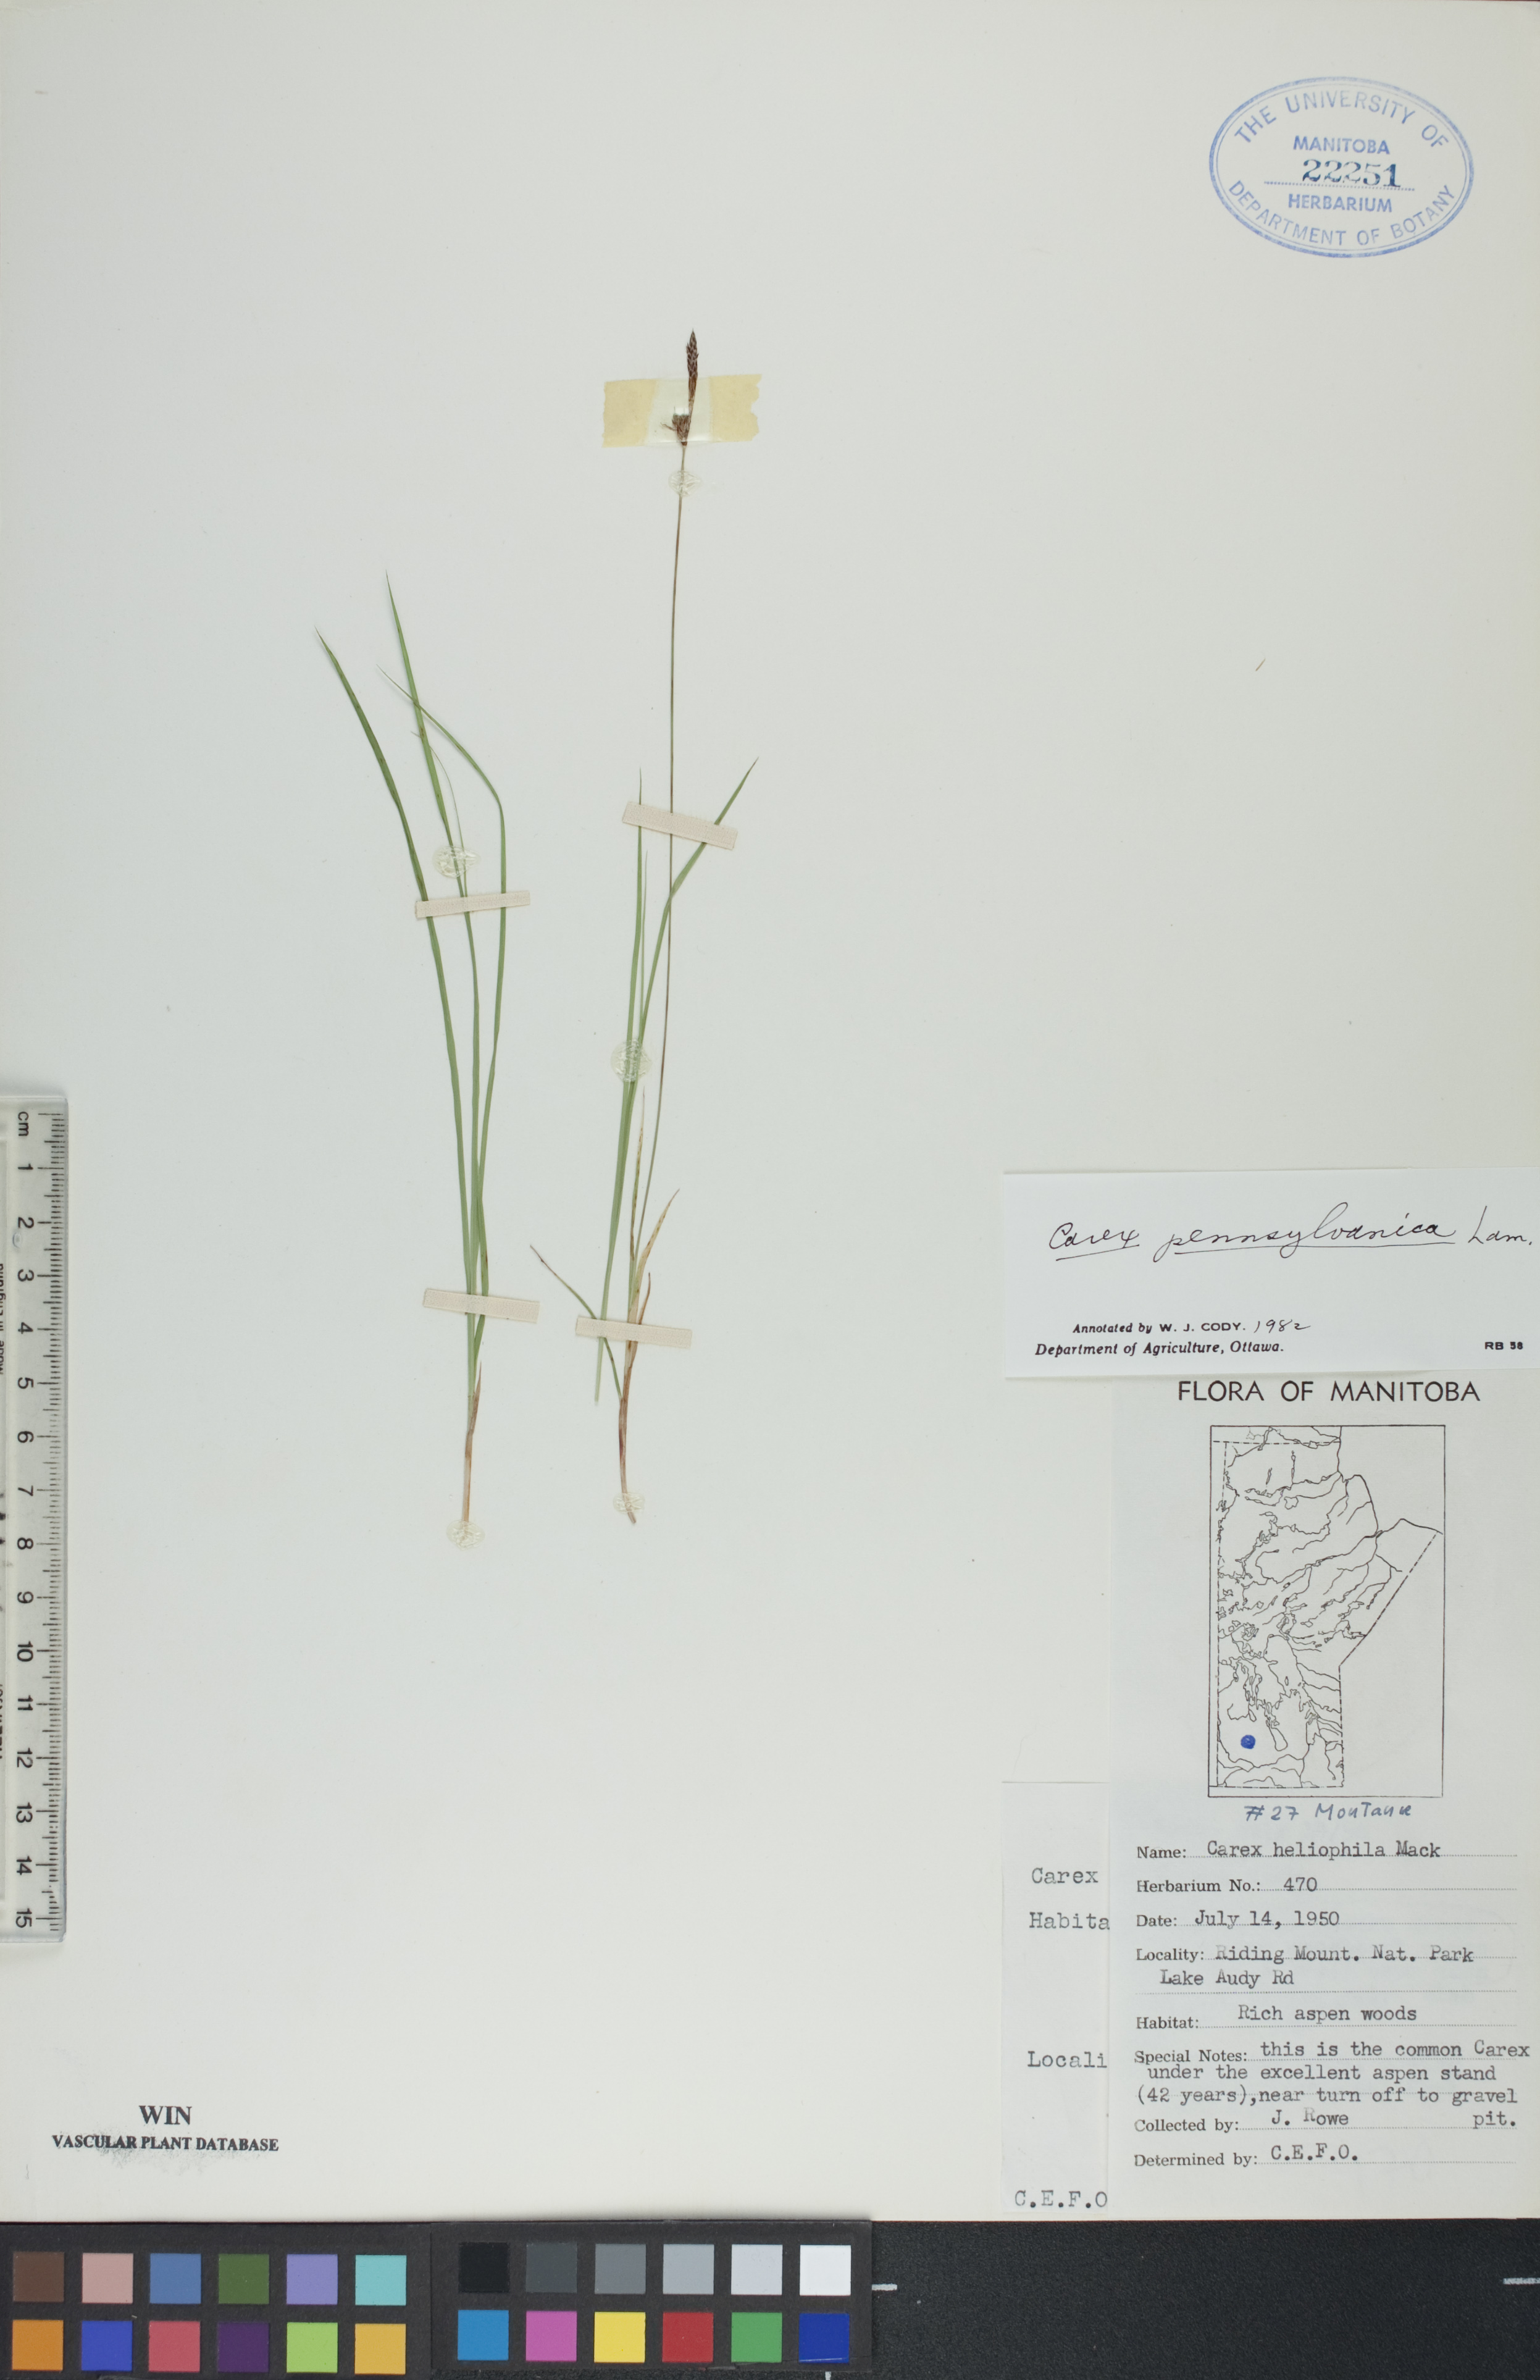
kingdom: Plantae
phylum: Tracheophyta
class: Liliopsida
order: Poales
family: Cyperaceae
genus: Carex
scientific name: Carex pensylvanica
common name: Common oak sedge
